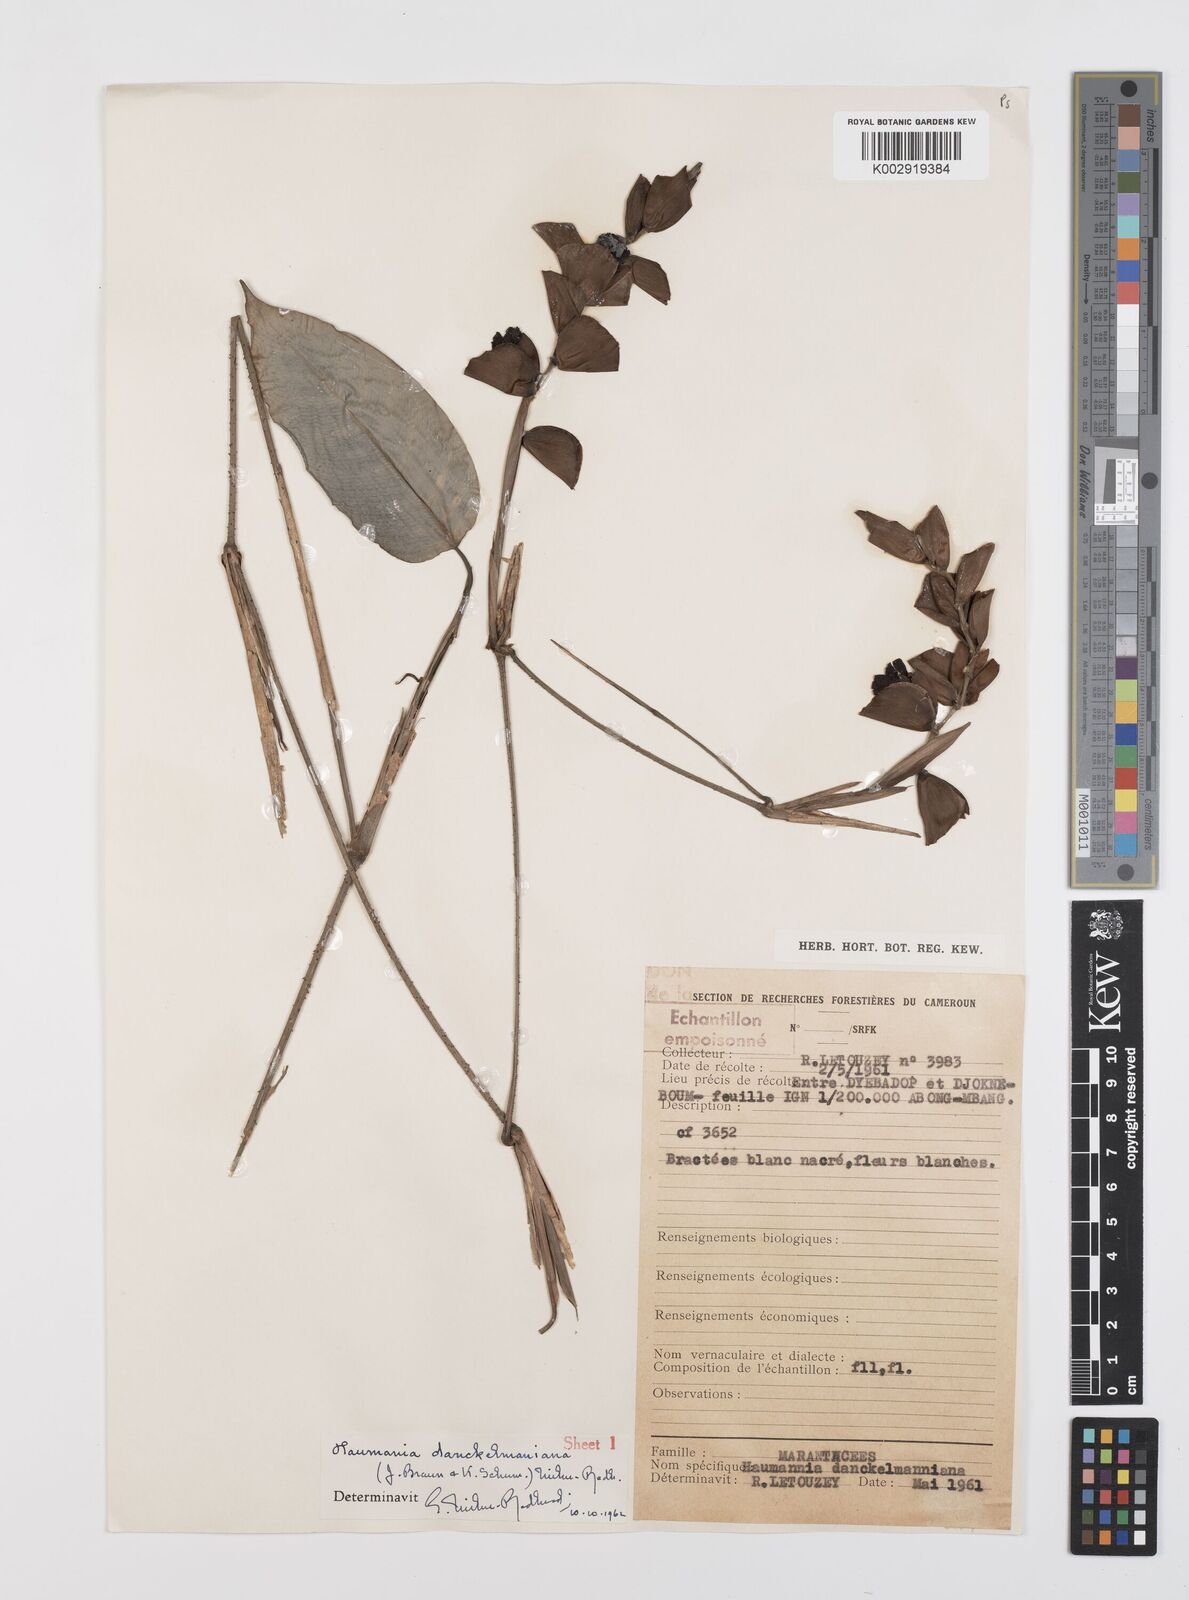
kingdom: Plantae
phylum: Tracheophyta
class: Liliopsida
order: Zingiberales
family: Marantaceae
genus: Haumania
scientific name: Haumania danckelmaniana
